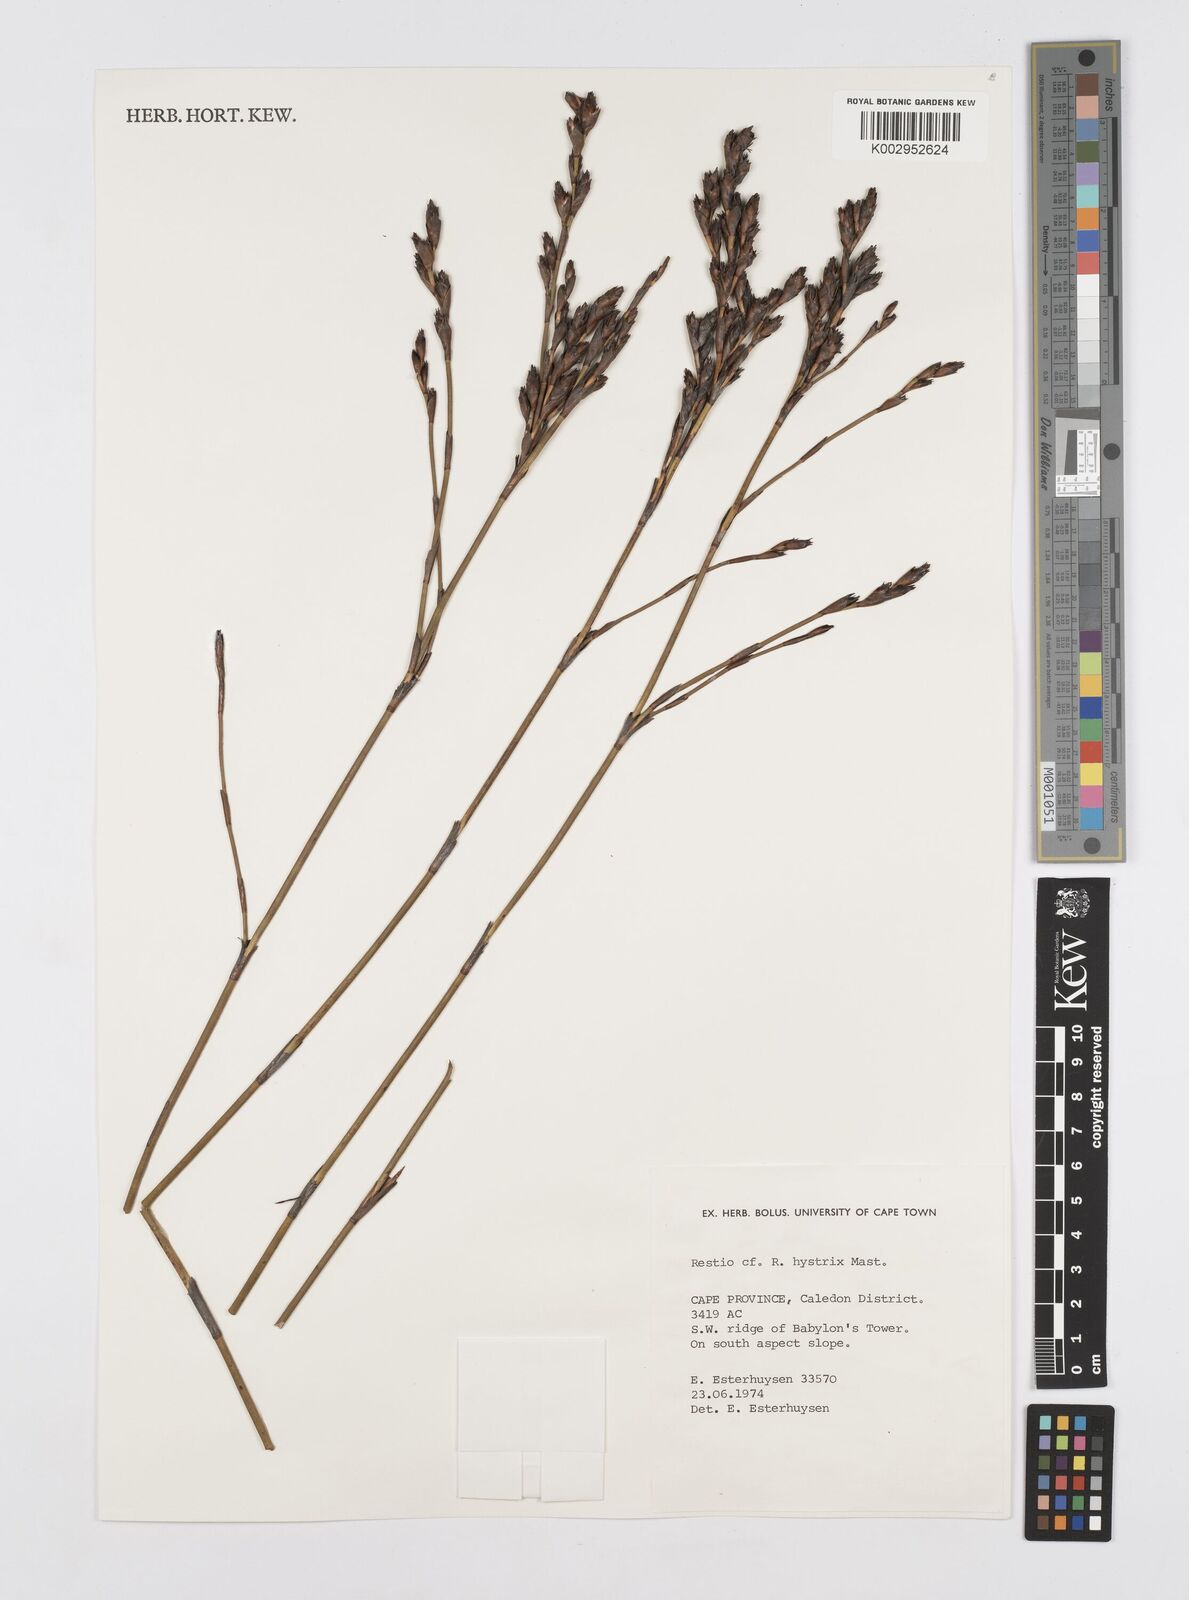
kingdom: Plantae
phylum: Tracheophyta
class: Liliopsida
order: Poales
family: Restionaceae
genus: Restio
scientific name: Restio hystrix
